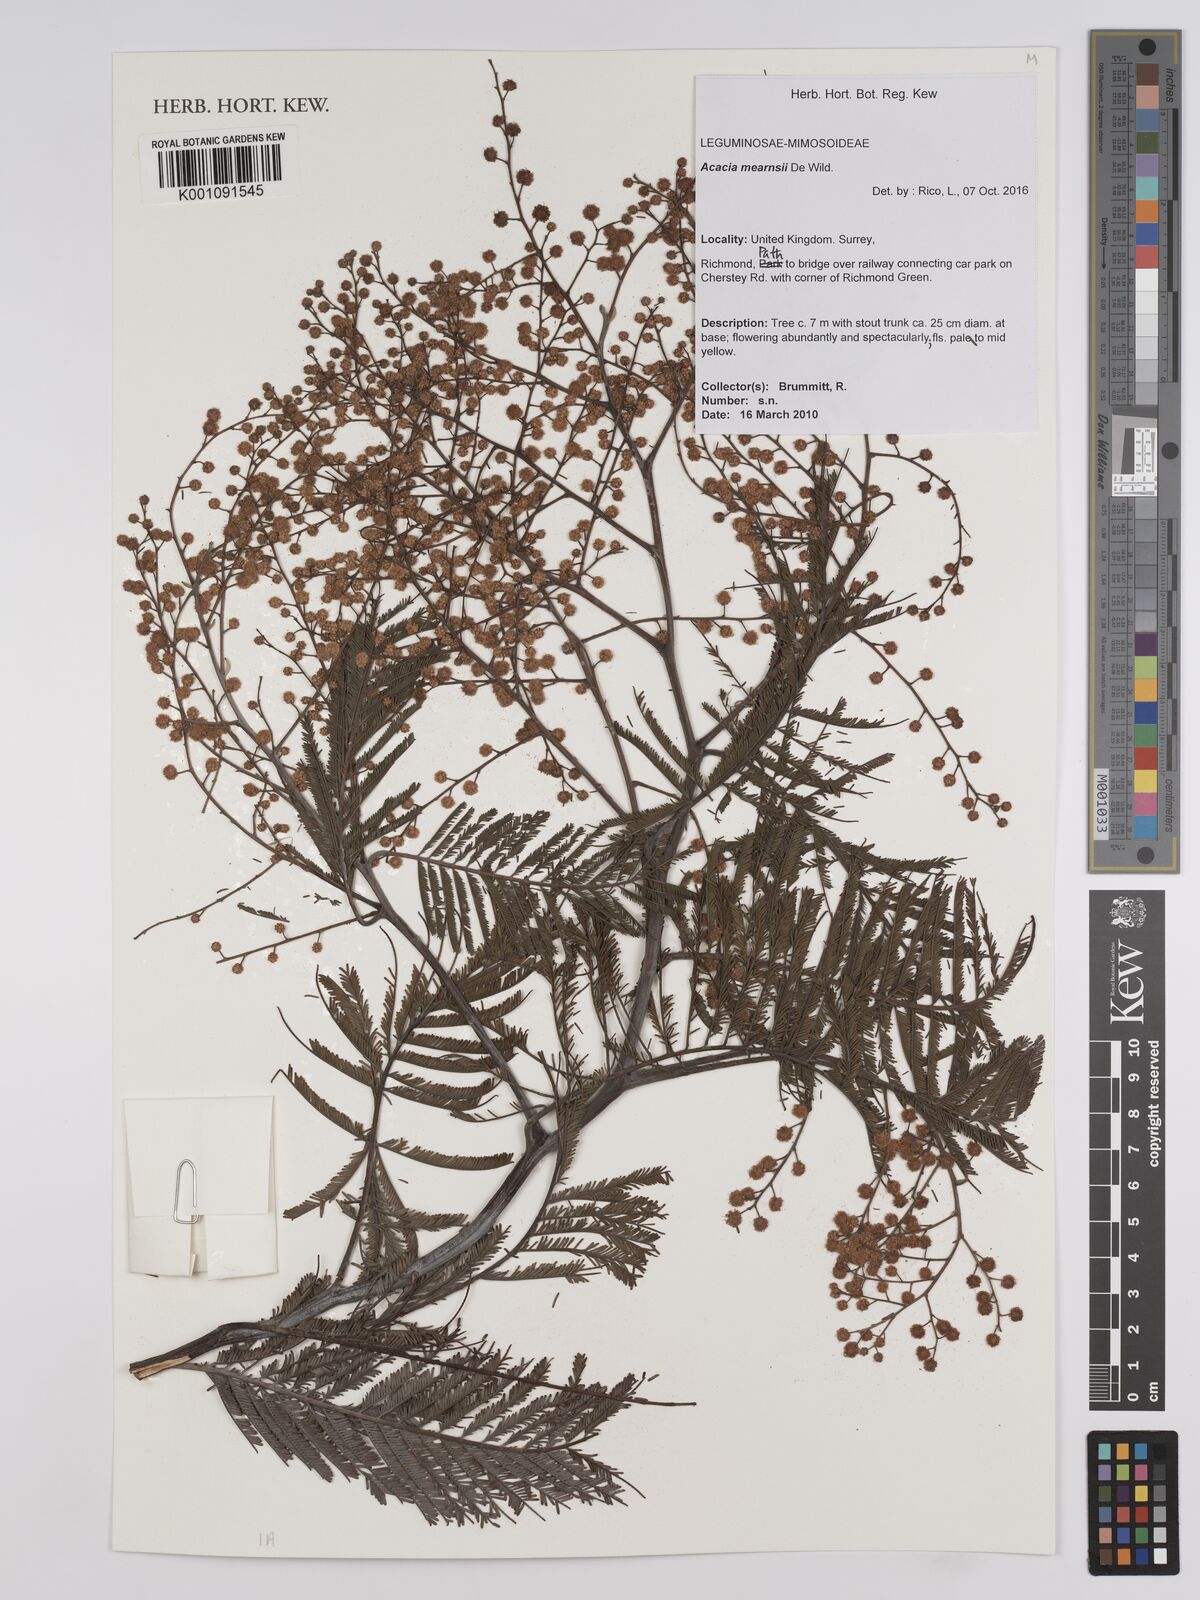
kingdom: Plantae
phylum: Tracheophyta
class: Magnoliopsida
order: Fabales
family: Fabaceae
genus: Acacia
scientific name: Acacia mearnsii
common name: Black wattle
